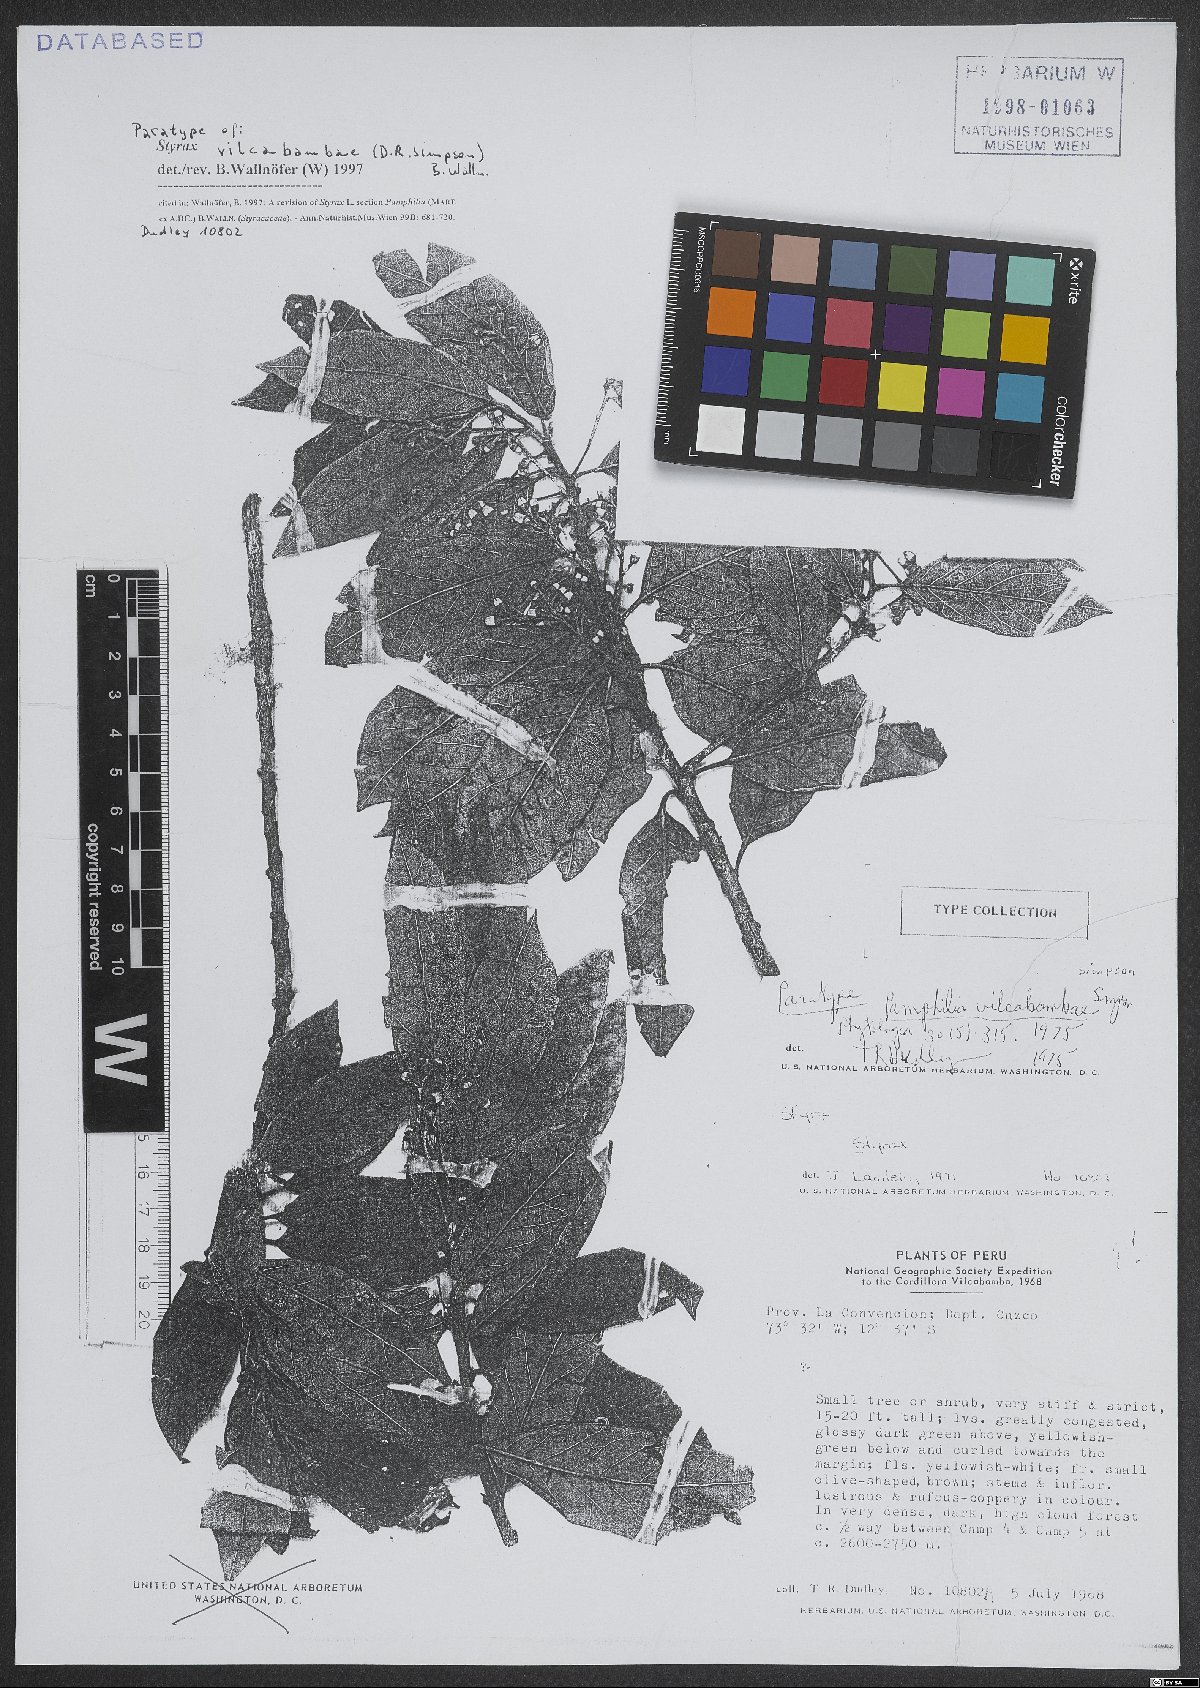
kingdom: Plantae
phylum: Tracheophyta
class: Magnoliopsida
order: Ericales
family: Styracaceae
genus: Styrax
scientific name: Styrax vilcabambae
